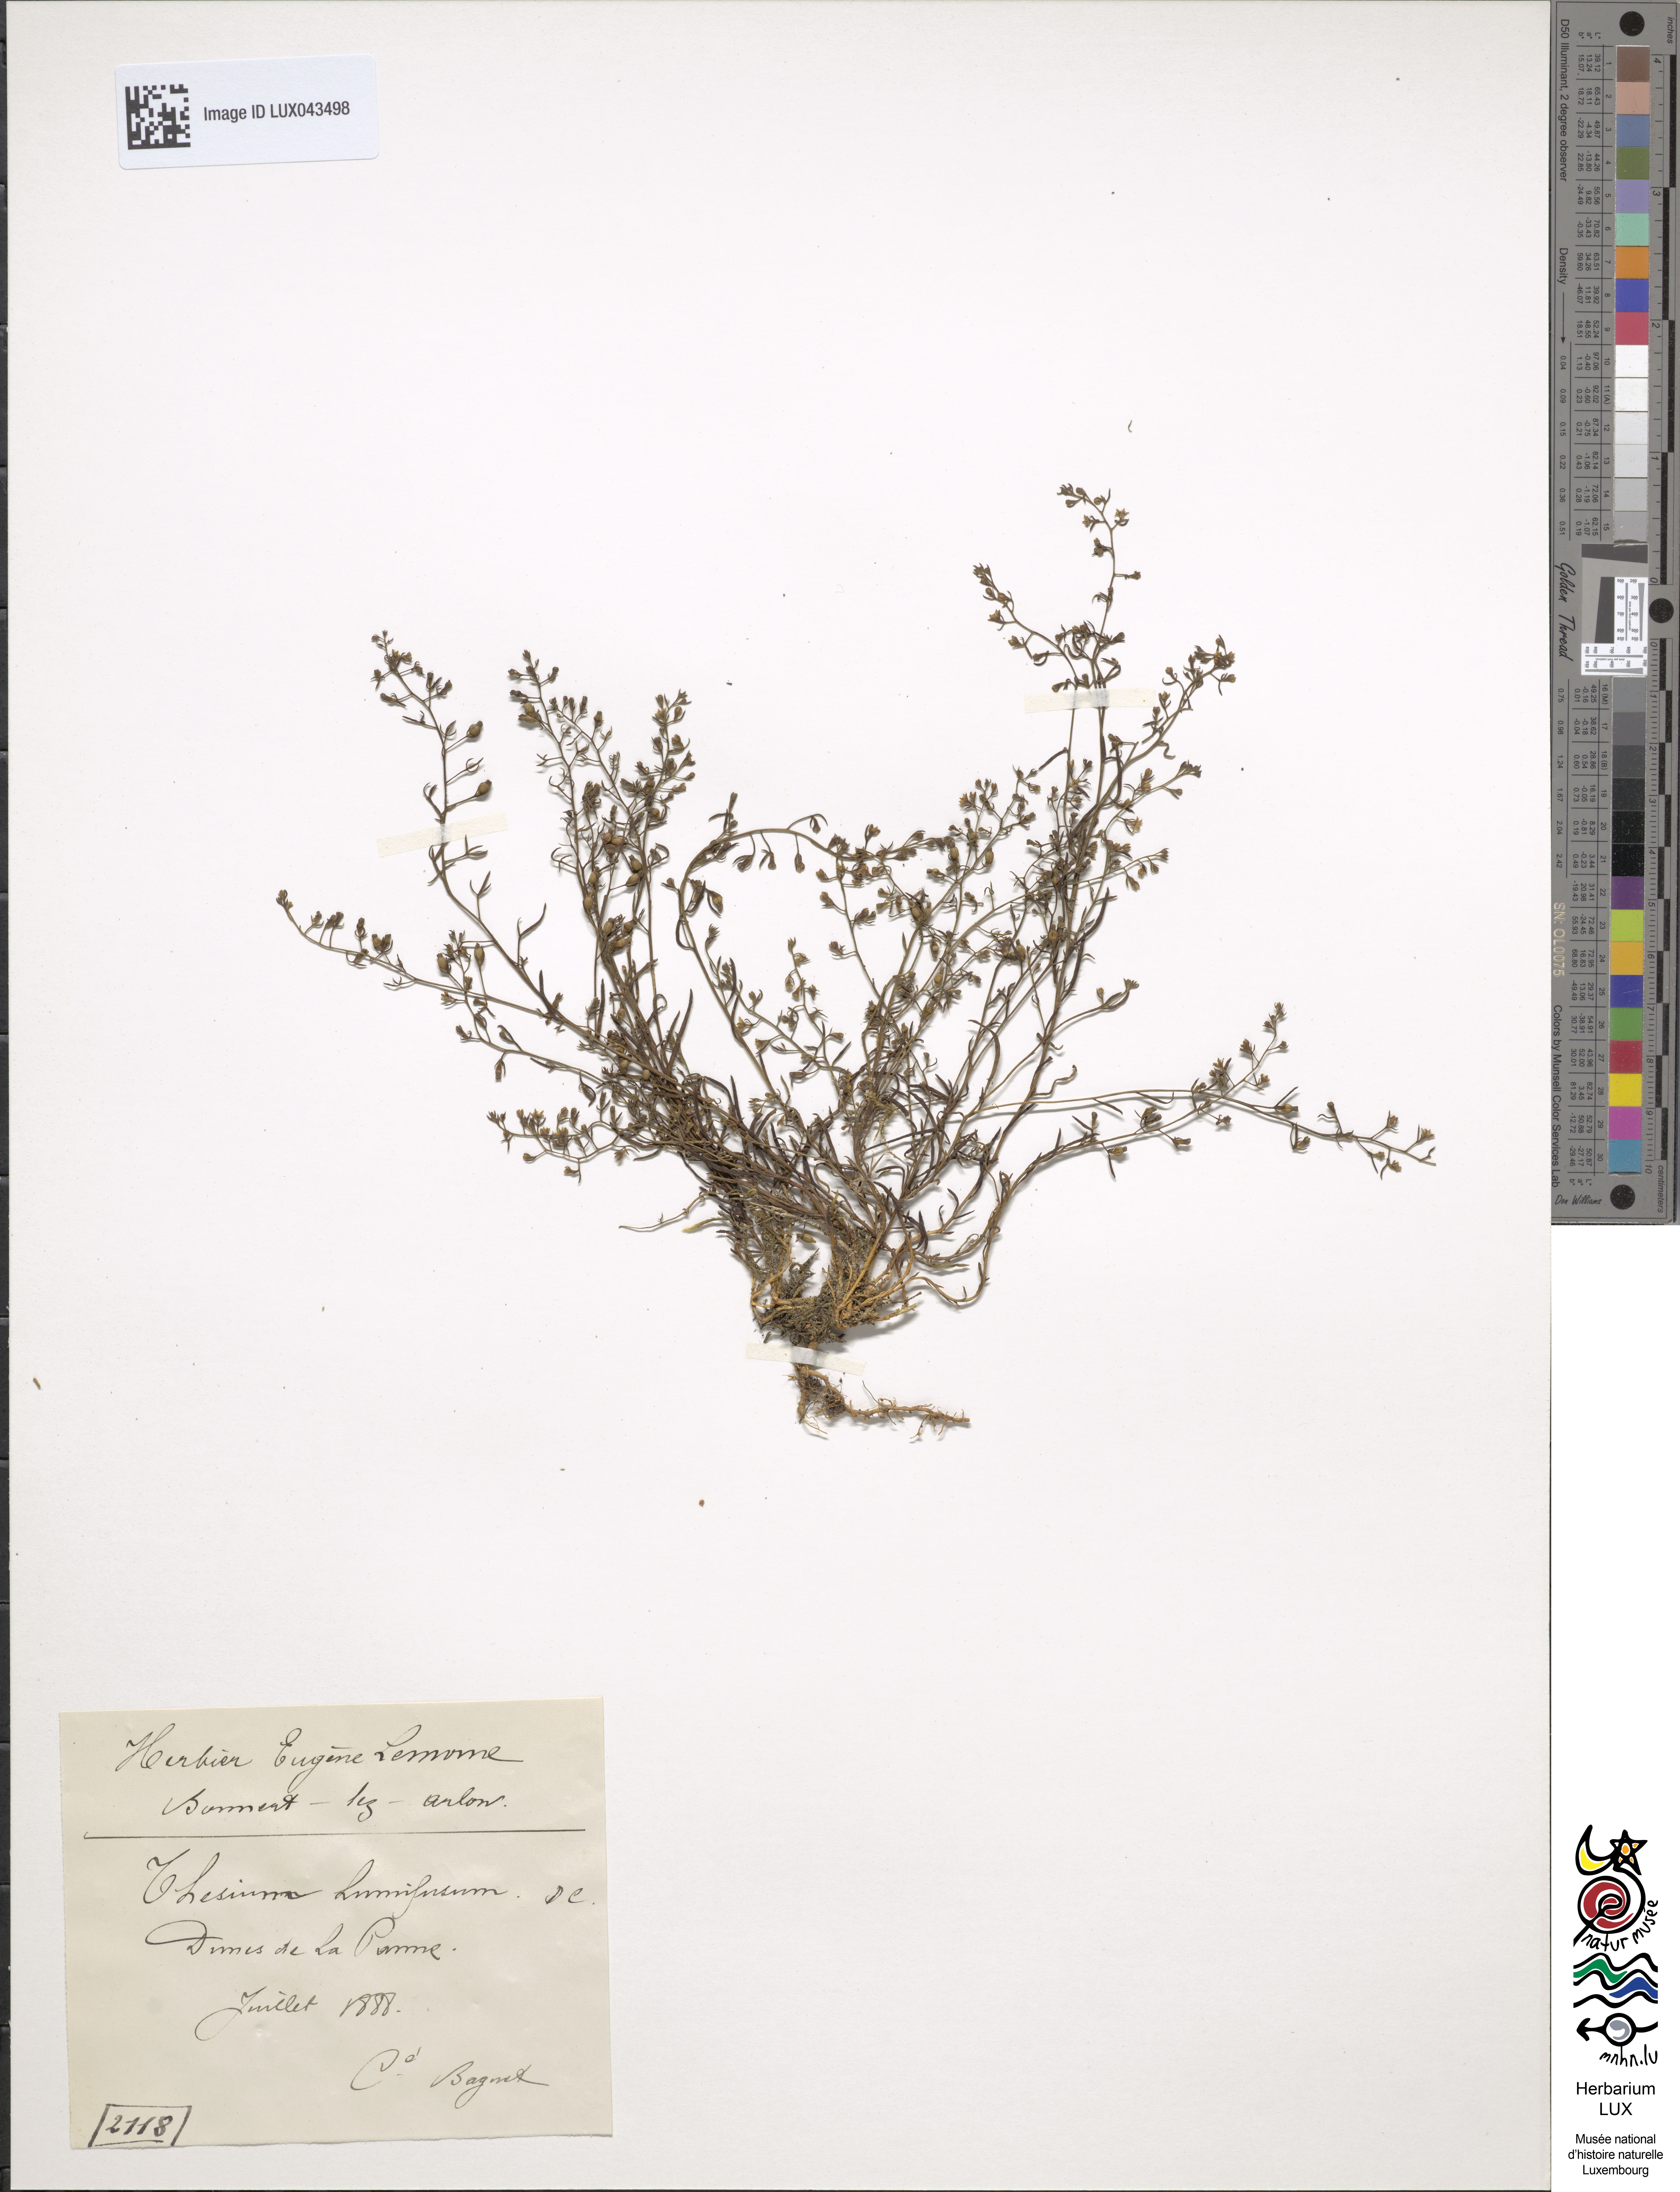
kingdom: Plantae
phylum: Tracheophyta
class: Magnoliopsida
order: Santalales
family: Thesiaceae
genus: Thesium
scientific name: Thesium humifusum
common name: Bastard-toadflax
